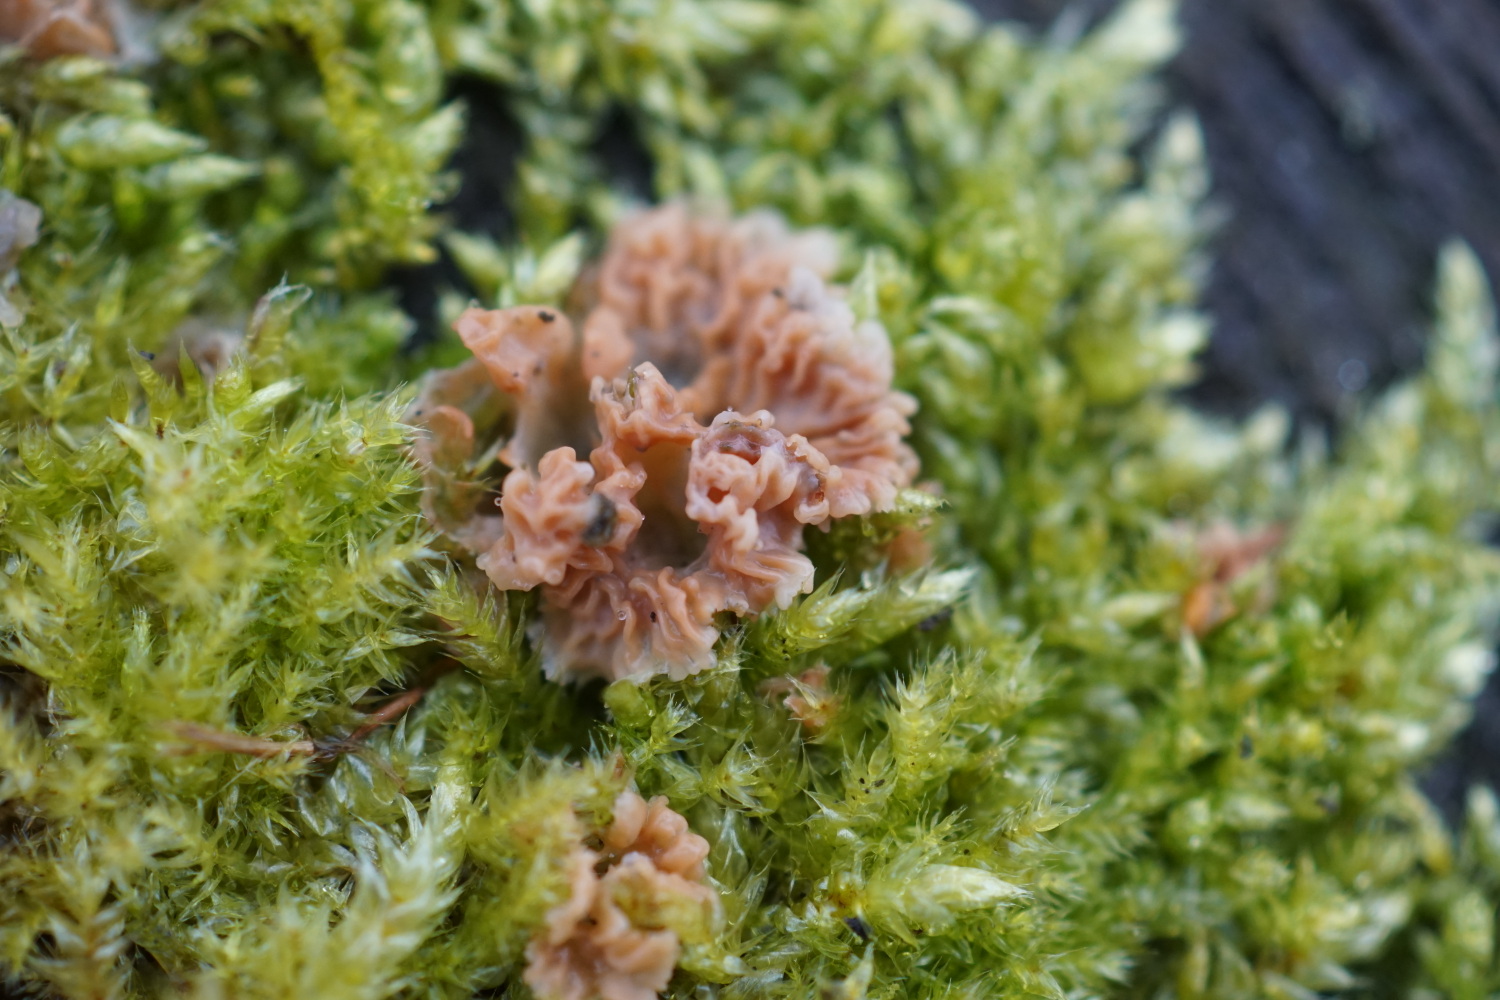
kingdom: Fungi
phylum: Basidiomycota
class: Agaricomycetes
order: Polyporales
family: Meruliaceae
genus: Phlebia
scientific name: Phlebia tremellosa
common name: bævrende åresvamp
